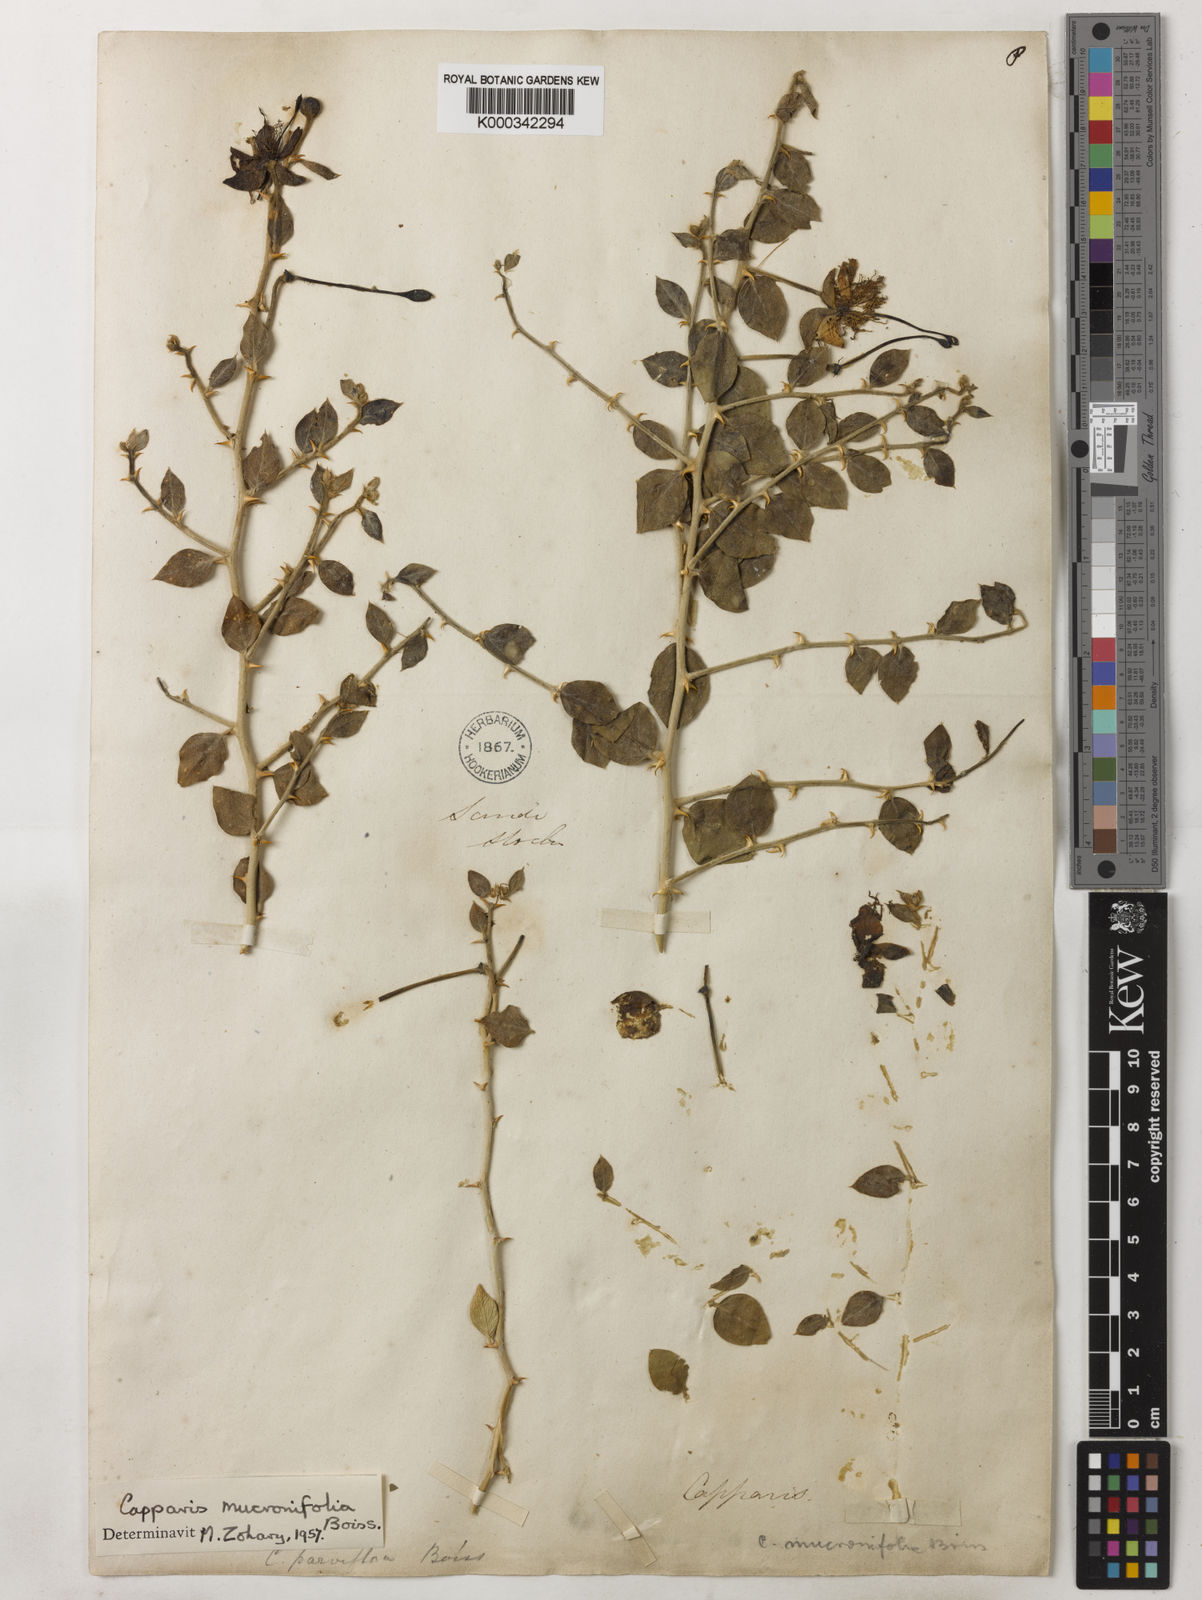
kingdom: Plantae
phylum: Tracheophyta
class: Magnoliopsida
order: Brassicales
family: Capparaceae
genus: Capparis
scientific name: Capparis spinosa
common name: Caper
